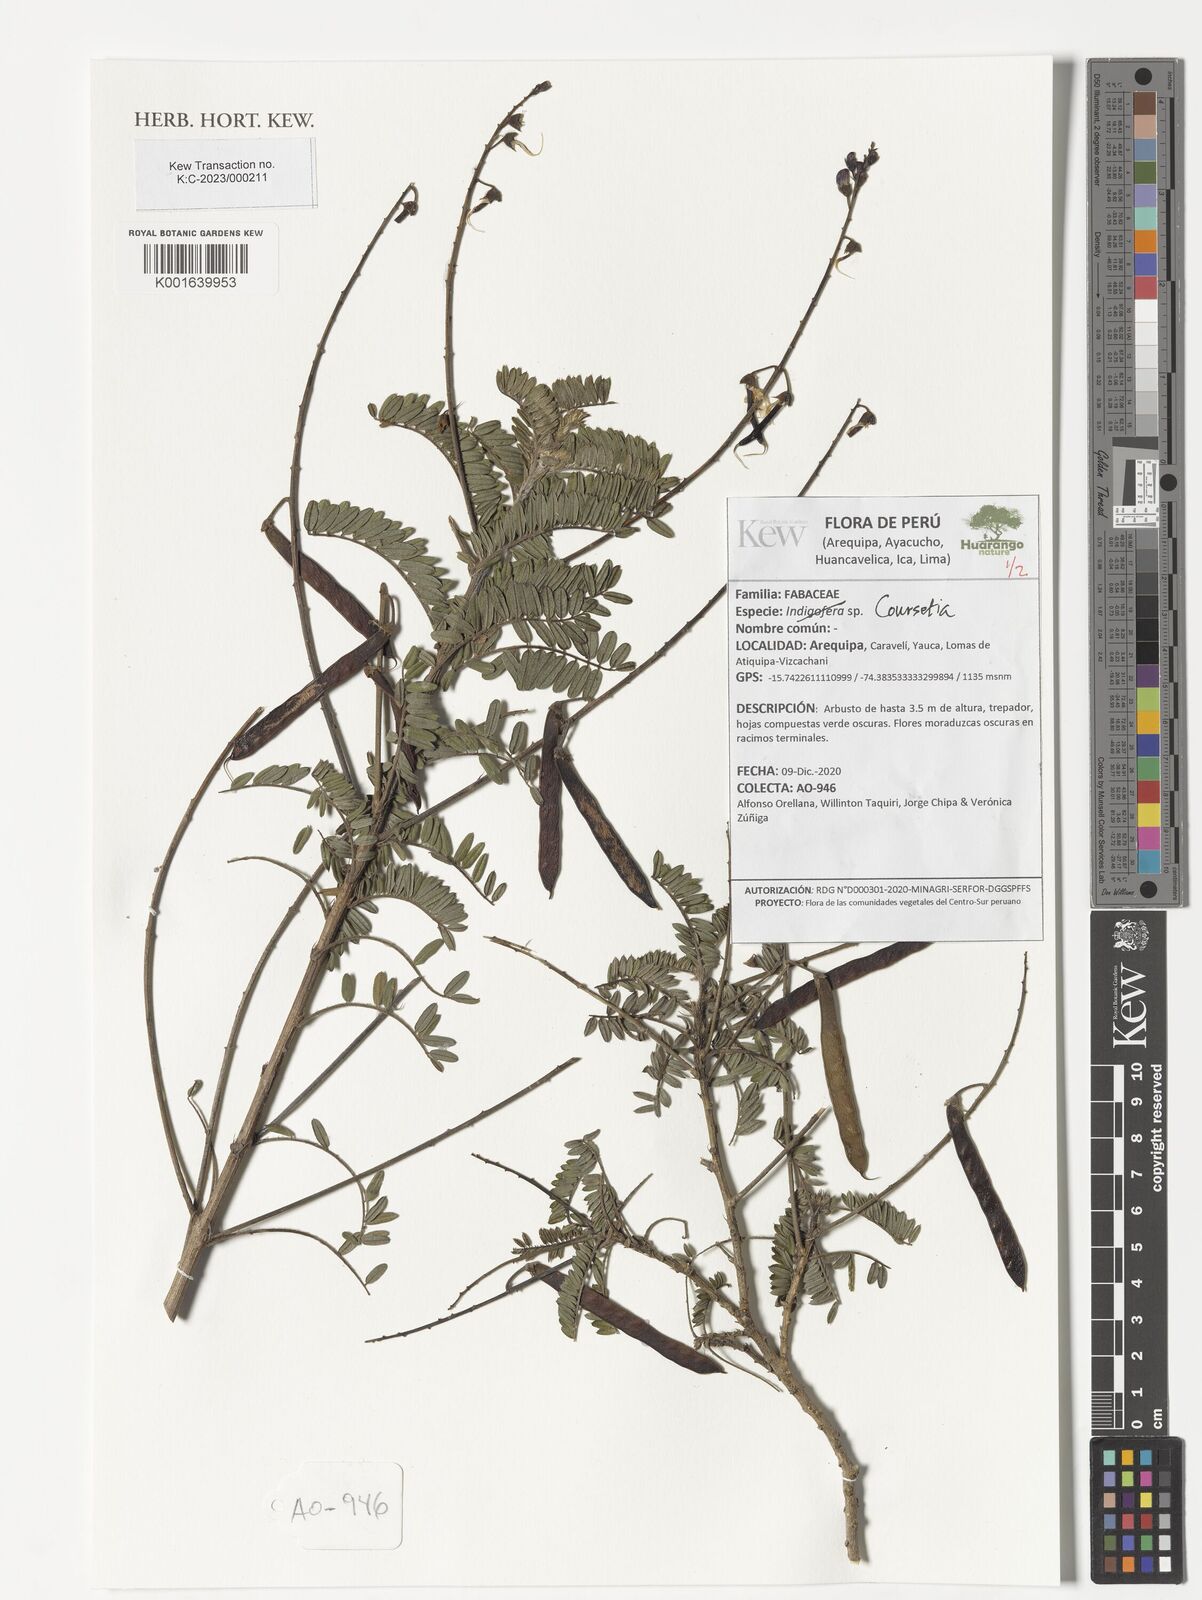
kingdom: Plantae
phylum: Tracheophyta
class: Magnoliopsida
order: Fabales
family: Fabaceae
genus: Coursetia
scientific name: Coursetia
